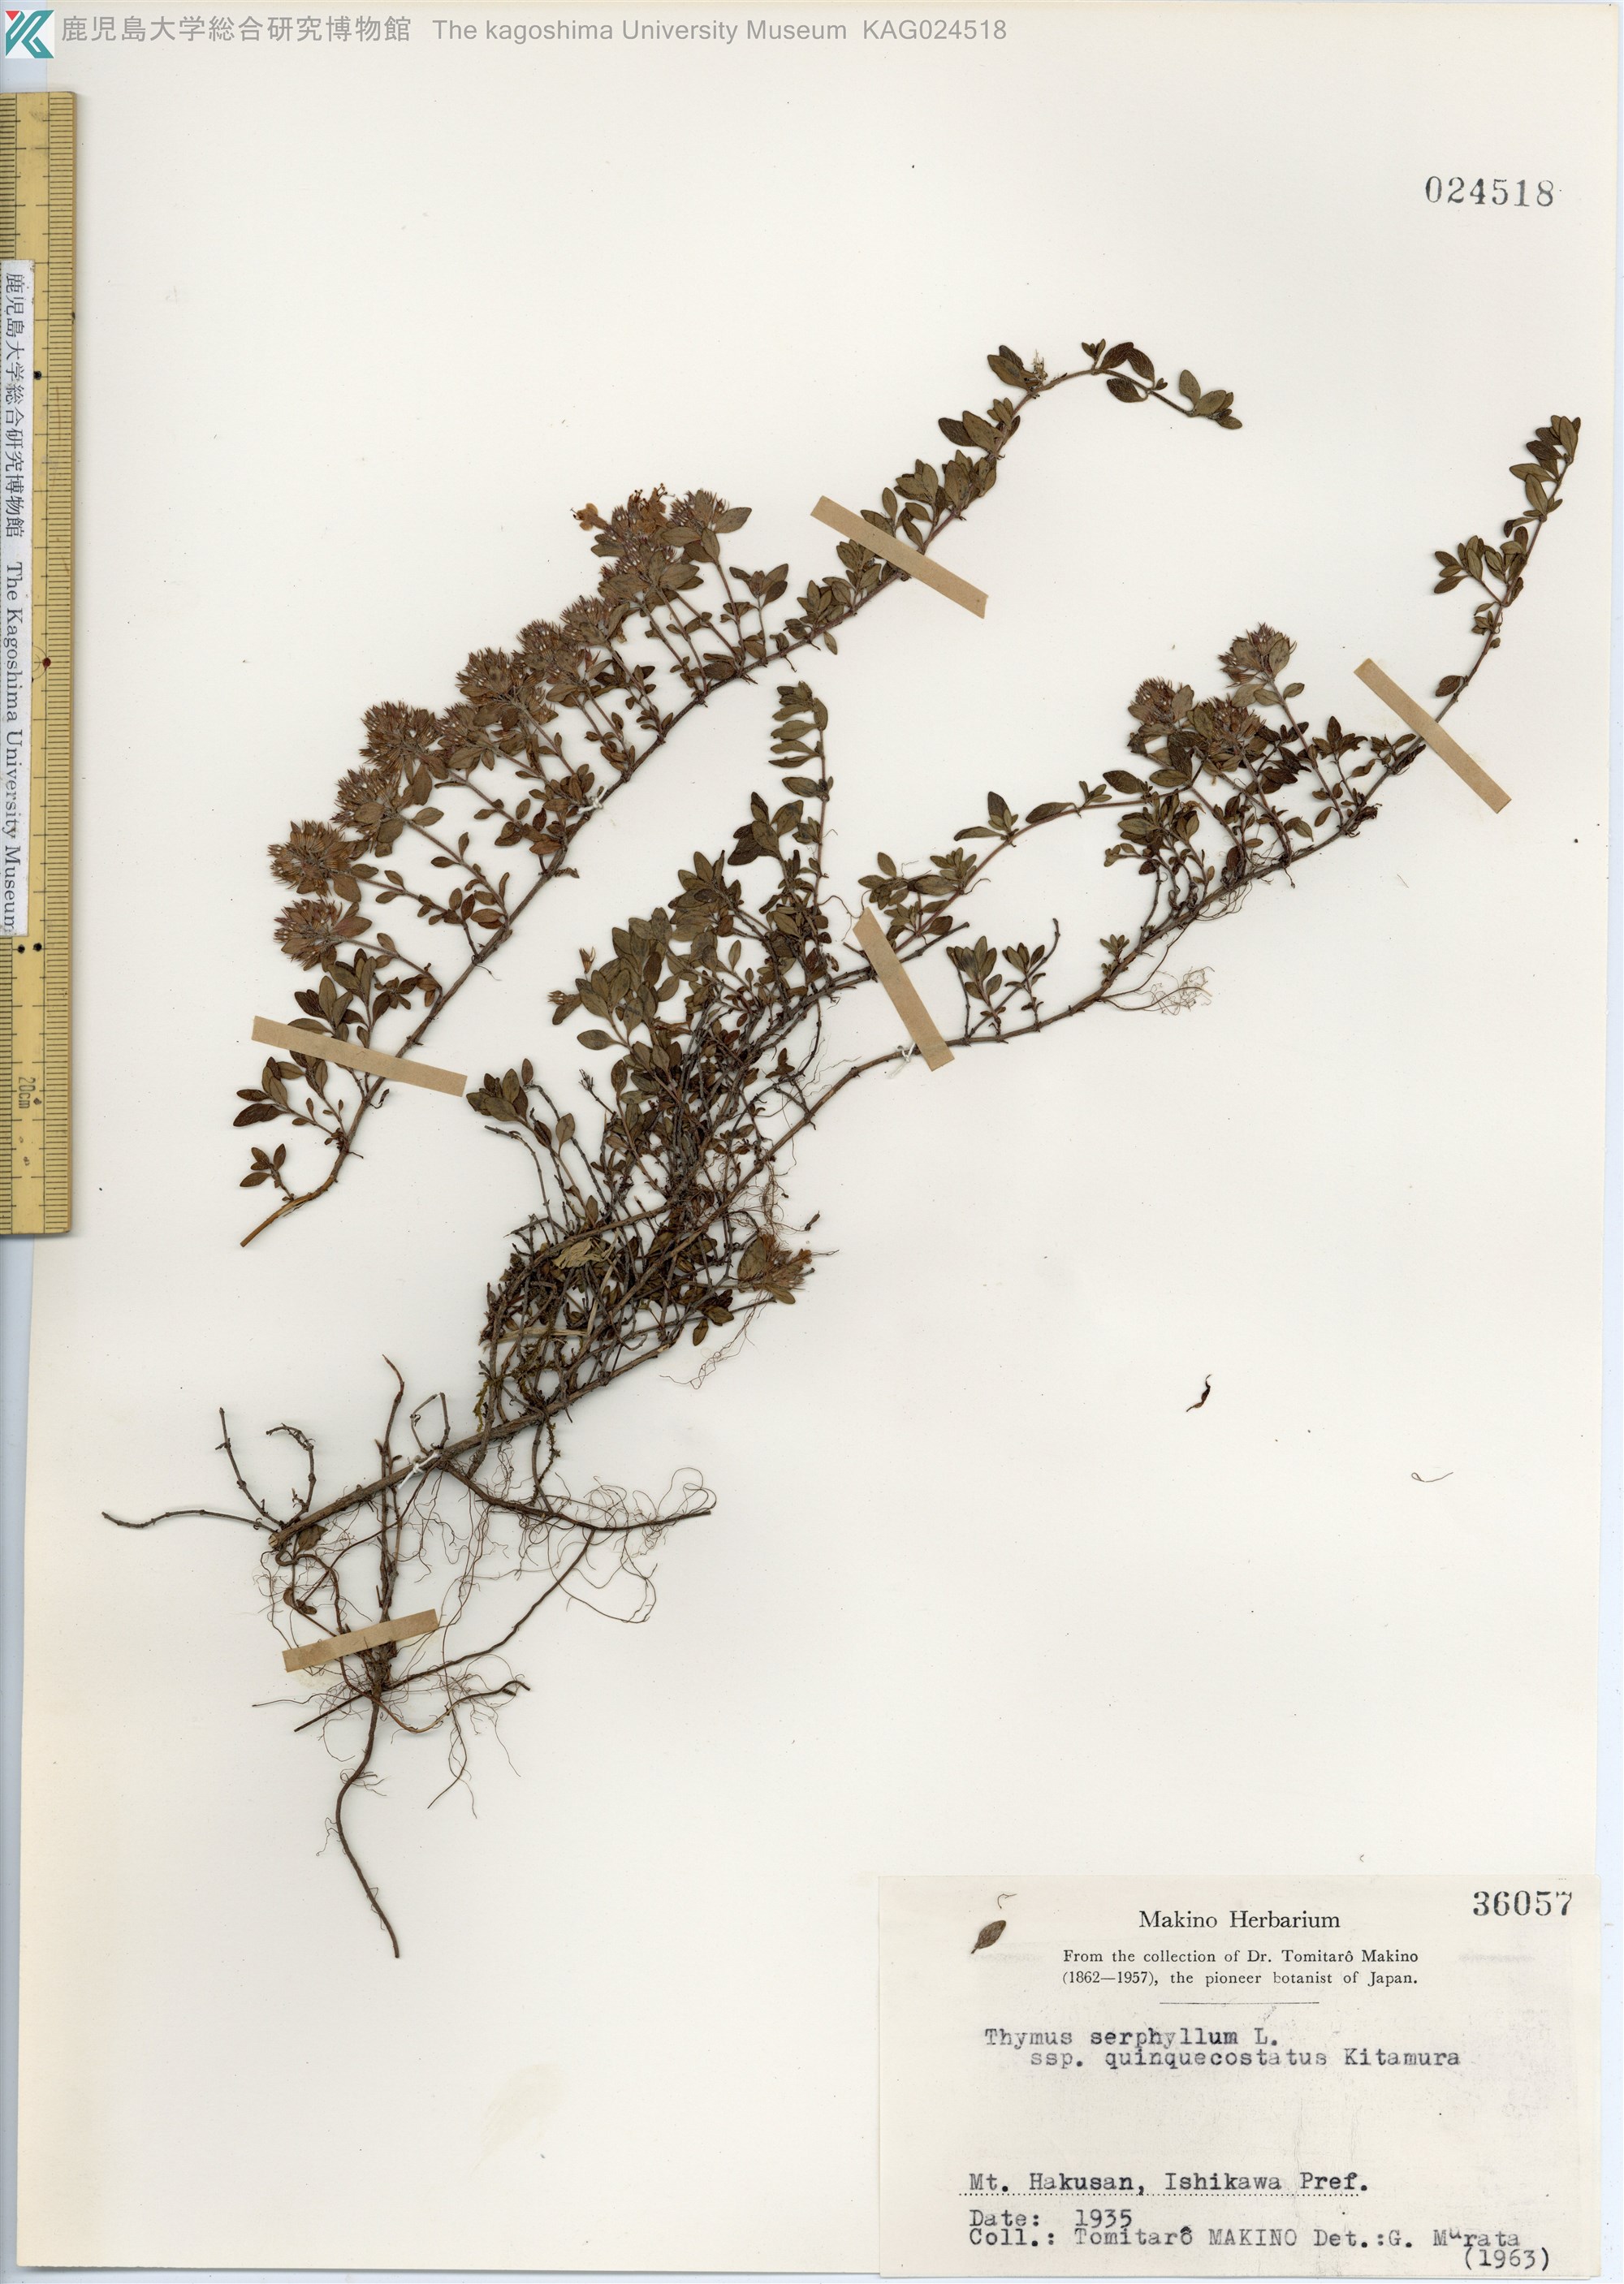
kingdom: Plantae
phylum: Tracheophyta
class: Magnoliopsida
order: Lamiales
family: Lamiaceae
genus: Thymus
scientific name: Thymus quinquecostatus
